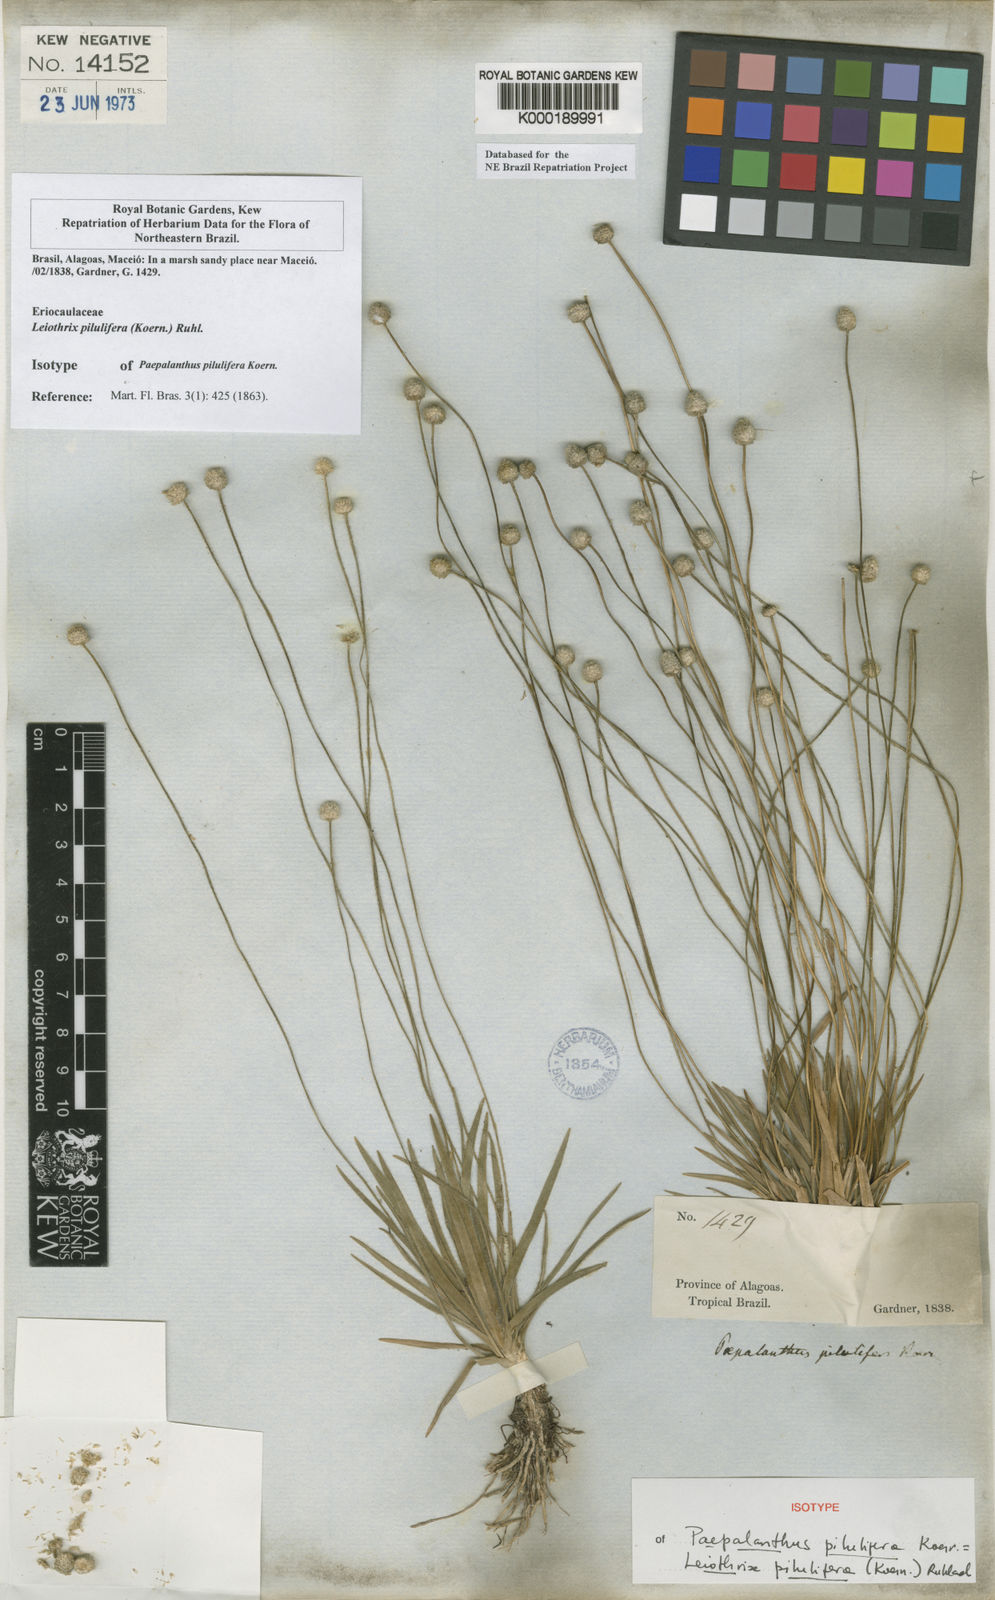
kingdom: Plantae
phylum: Tracheophyta
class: Liliopsida
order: Poales
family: Eriocaulaceae
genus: Leiothrix
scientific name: Leiothrix pilulifera
